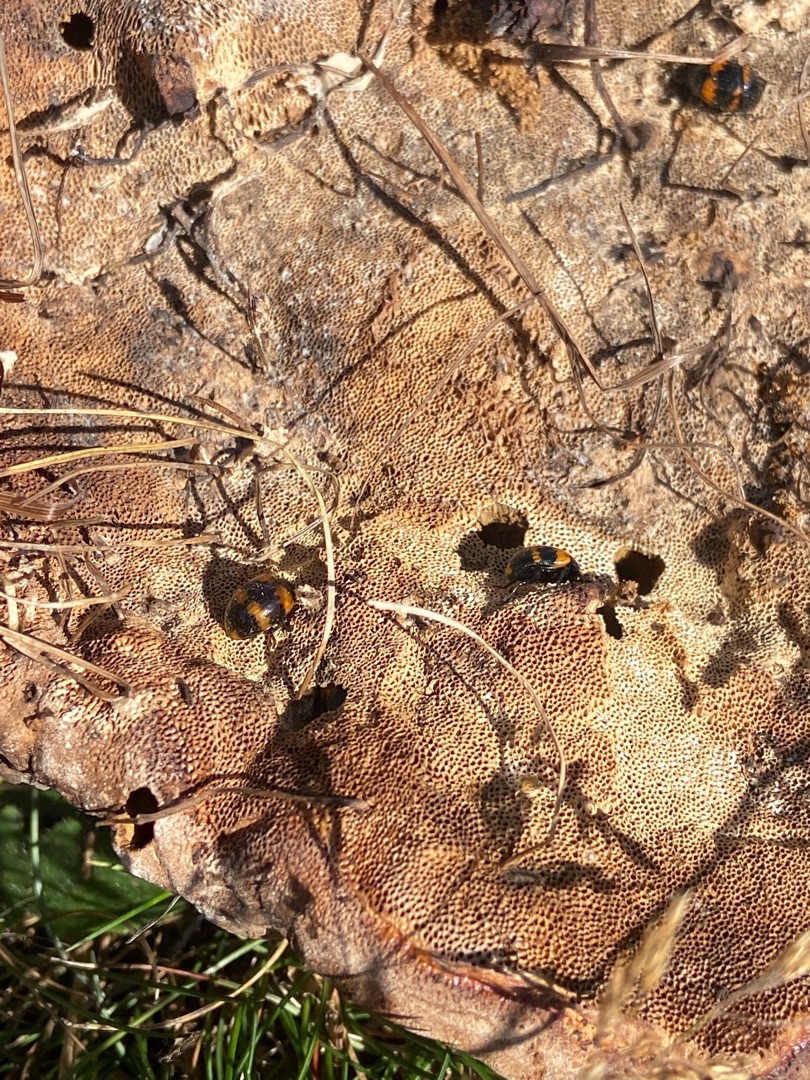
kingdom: Animalia
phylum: Arthropoda
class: Insecta
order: Coleoptera
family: Tenebrionidae
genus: Diaperis
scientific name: Diaperis boleti
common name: Tigerskyggebille
